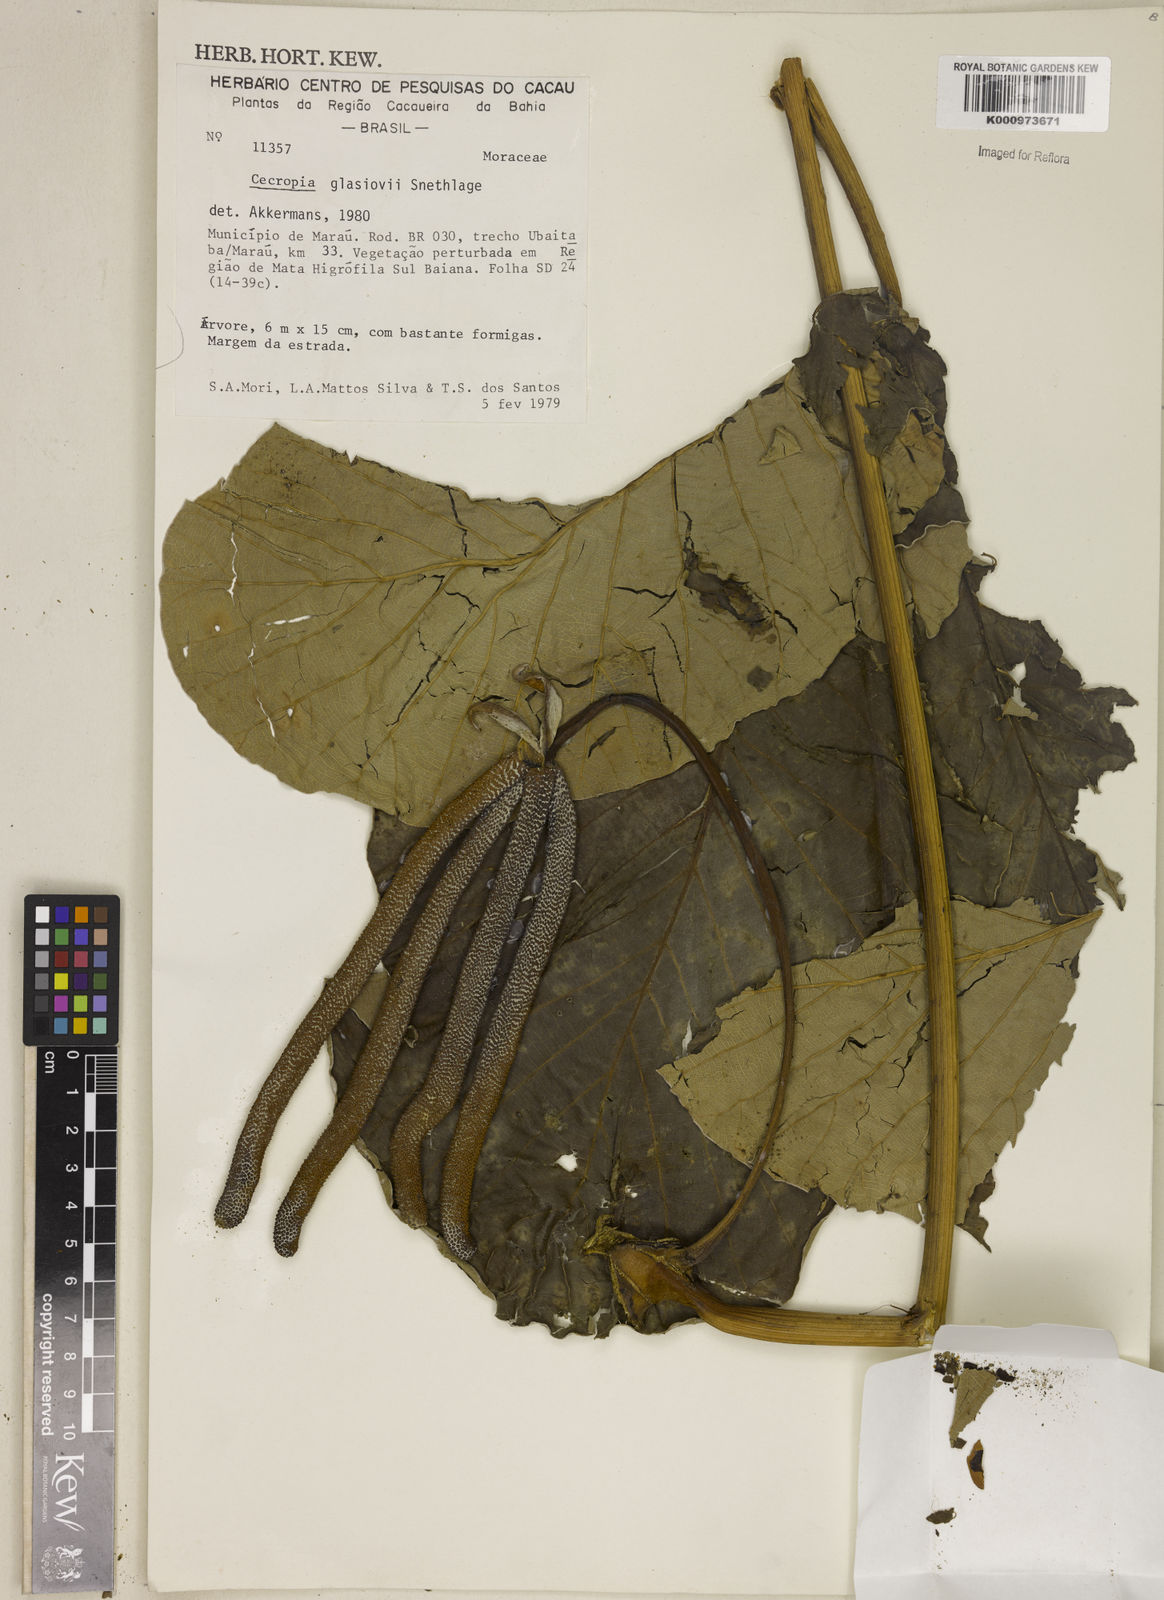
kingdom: Plantae
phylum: Tracheophyta
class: Magnoliopsida
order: Rosales
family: Urticaceae
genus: Cecropia
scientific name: Cecropia glaziovii
